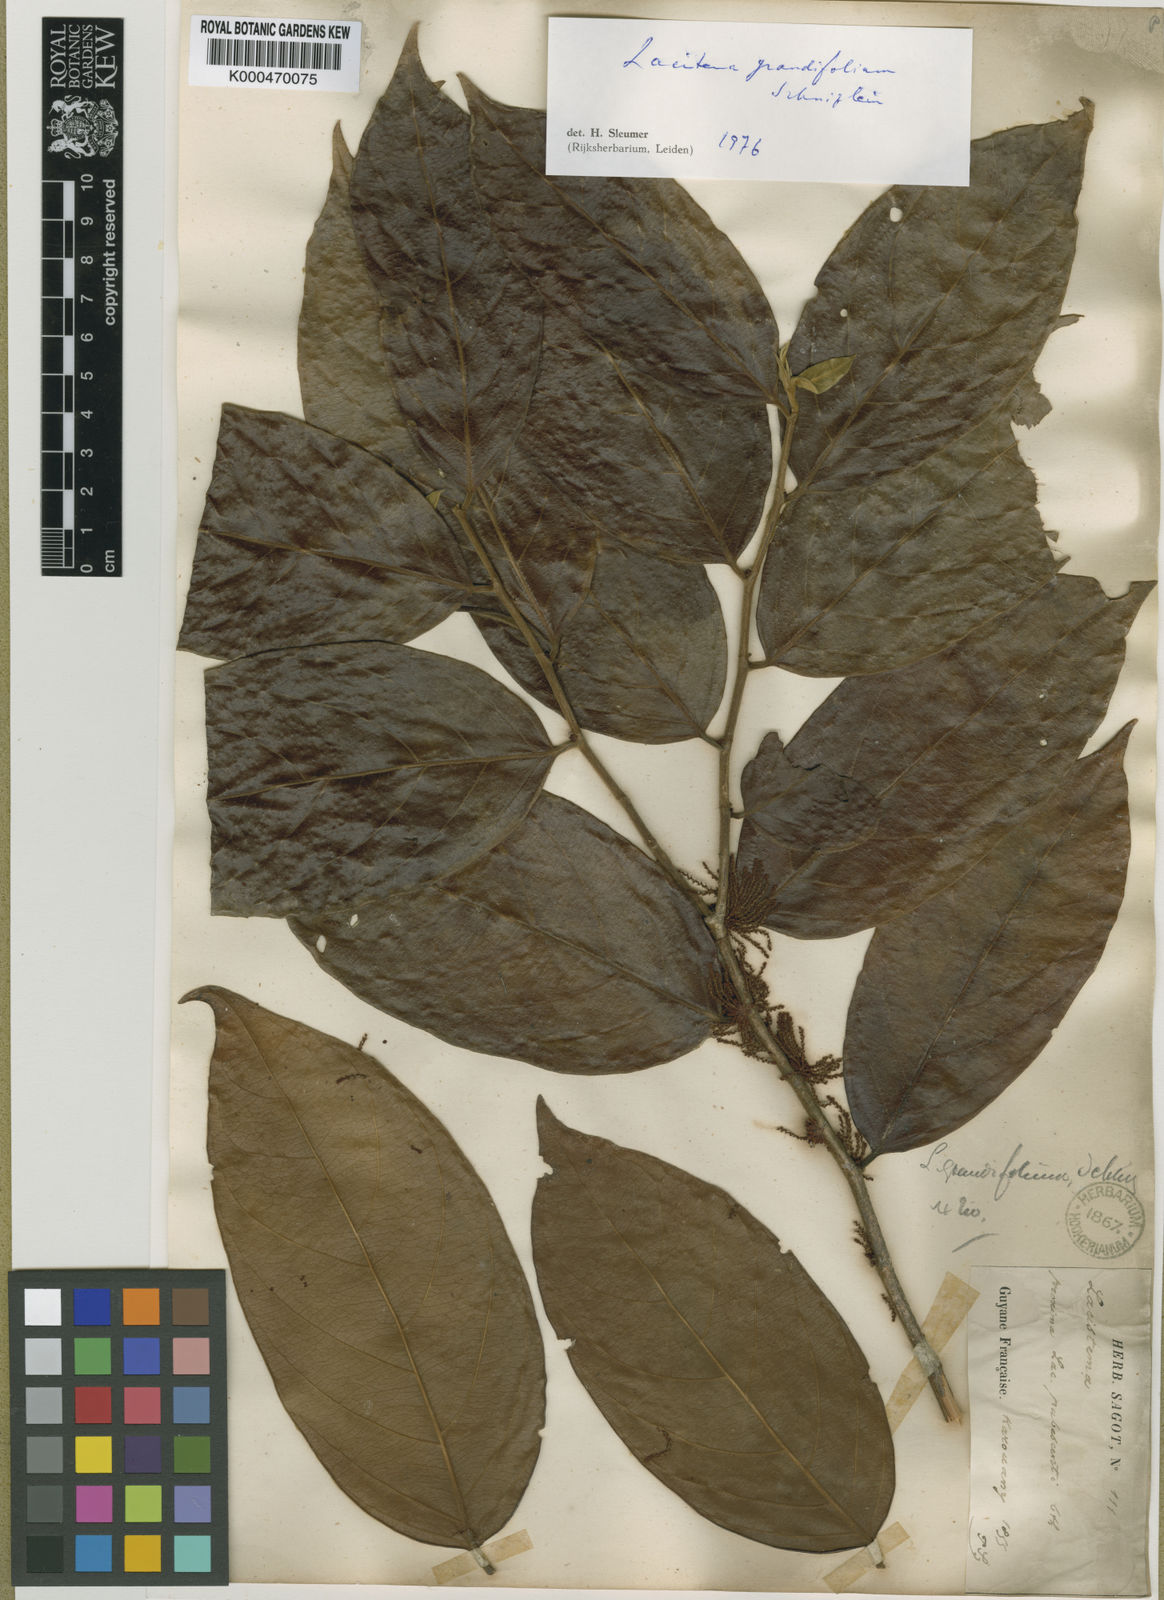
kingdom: Plantae
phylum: Tracheophyta
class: Magnoliopsida
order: Malpighiales
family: Lacistemataceae
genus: Lacistema
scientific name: Lacistema grandifolium
